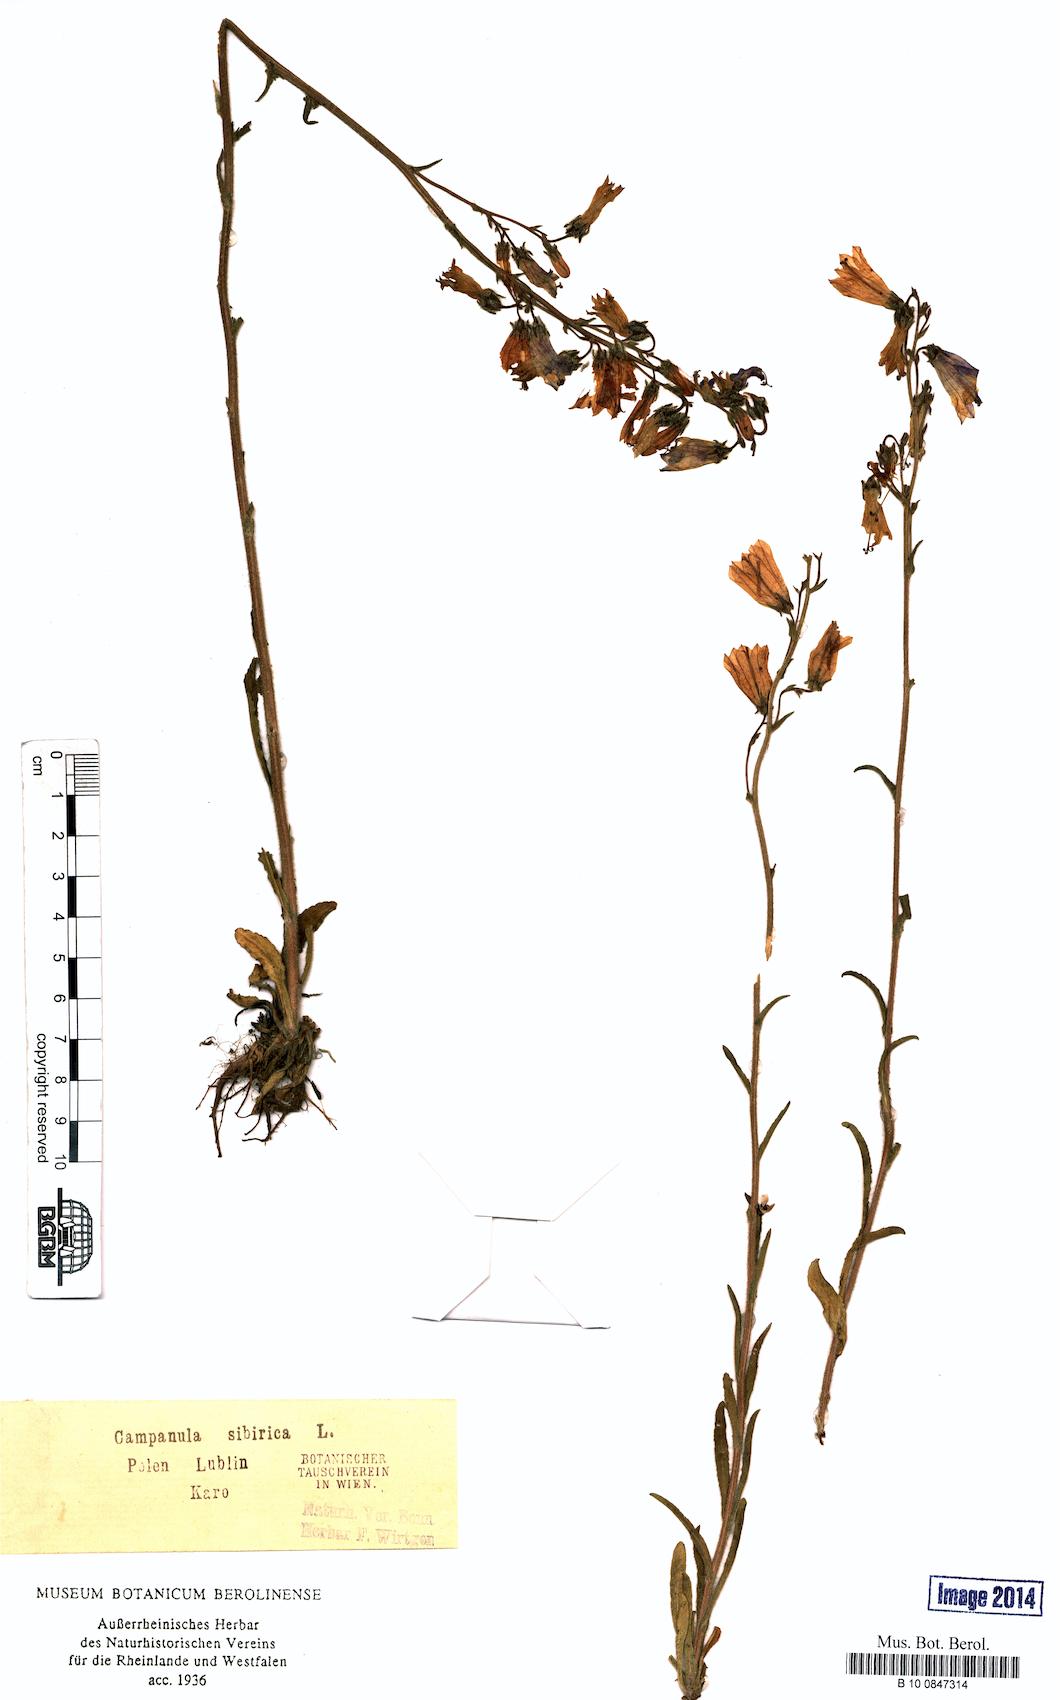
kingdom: Plantae
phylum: Tracheophyta
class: Magnoliopsida
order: Asterales
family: Campanulaceae
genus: Campanula
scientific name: Campanula sibirica
